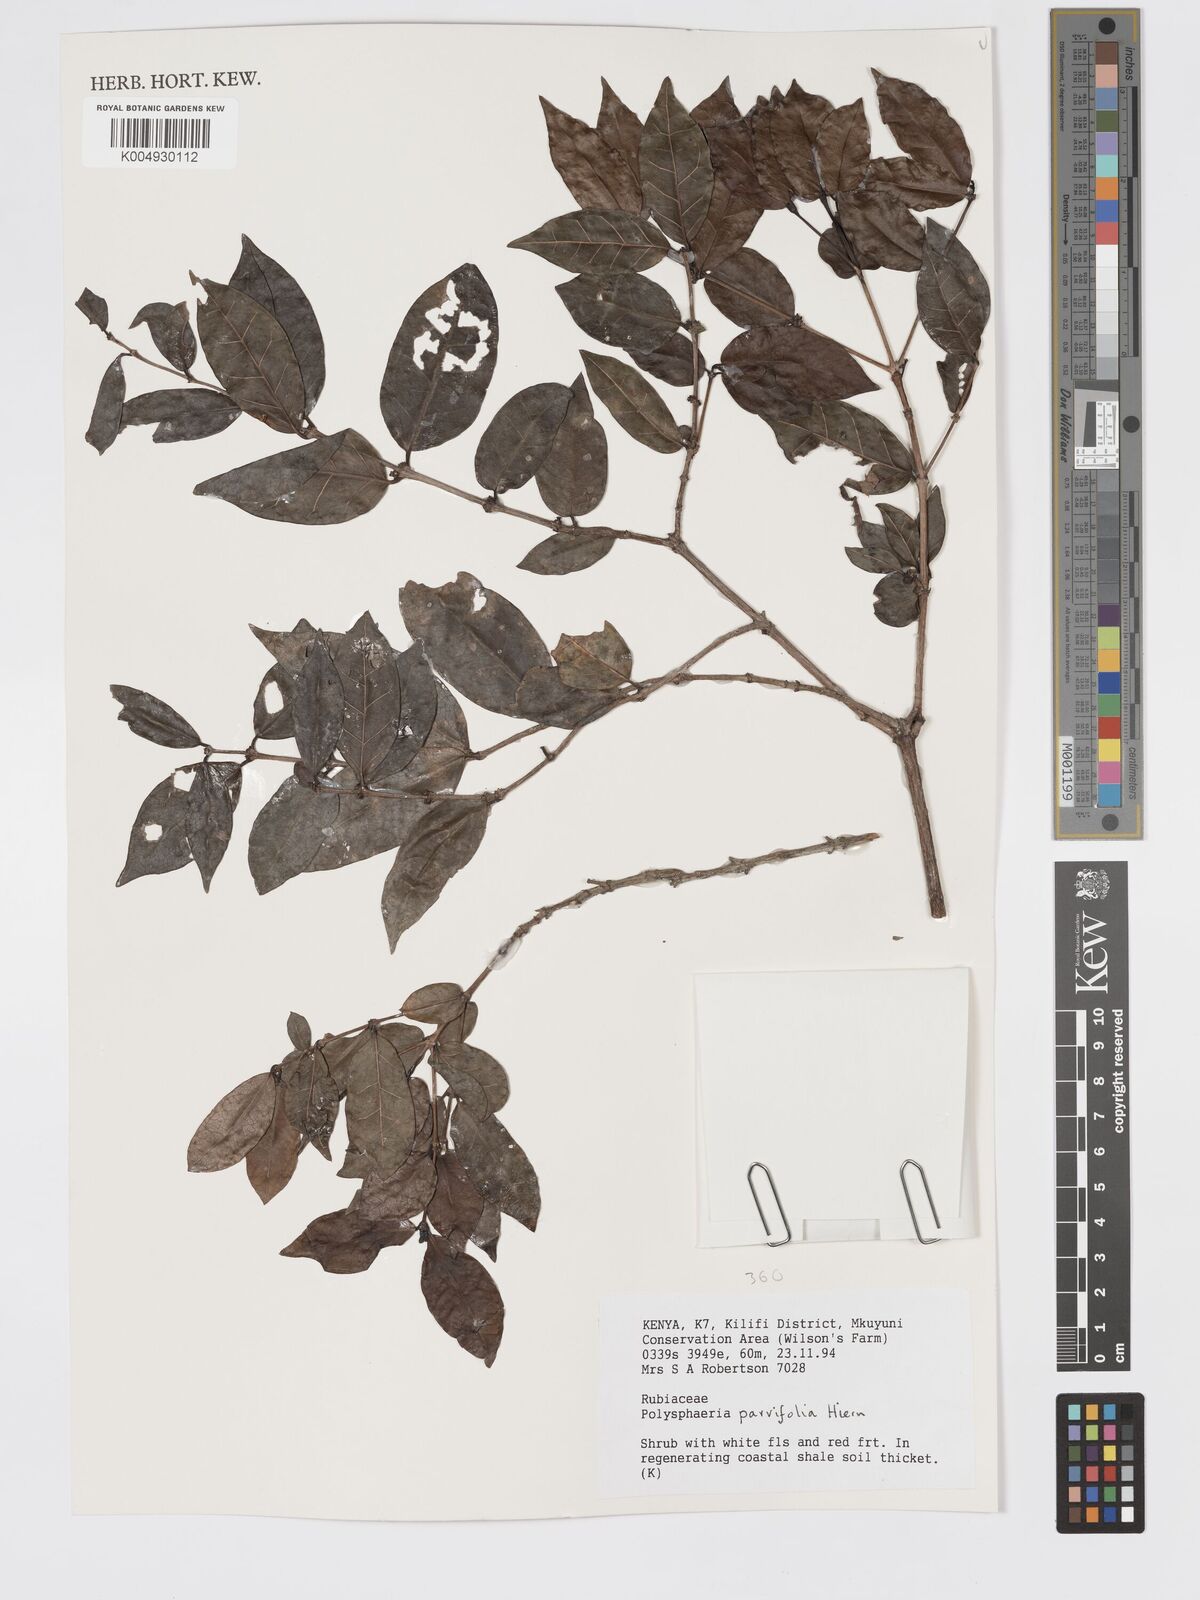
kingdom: Plantae
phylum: Tracheophyta
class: Magnoliopsida
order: Gentianales
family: Rubiaceae
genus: Polysphaeria
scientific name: Polysphaeria parvifolia
